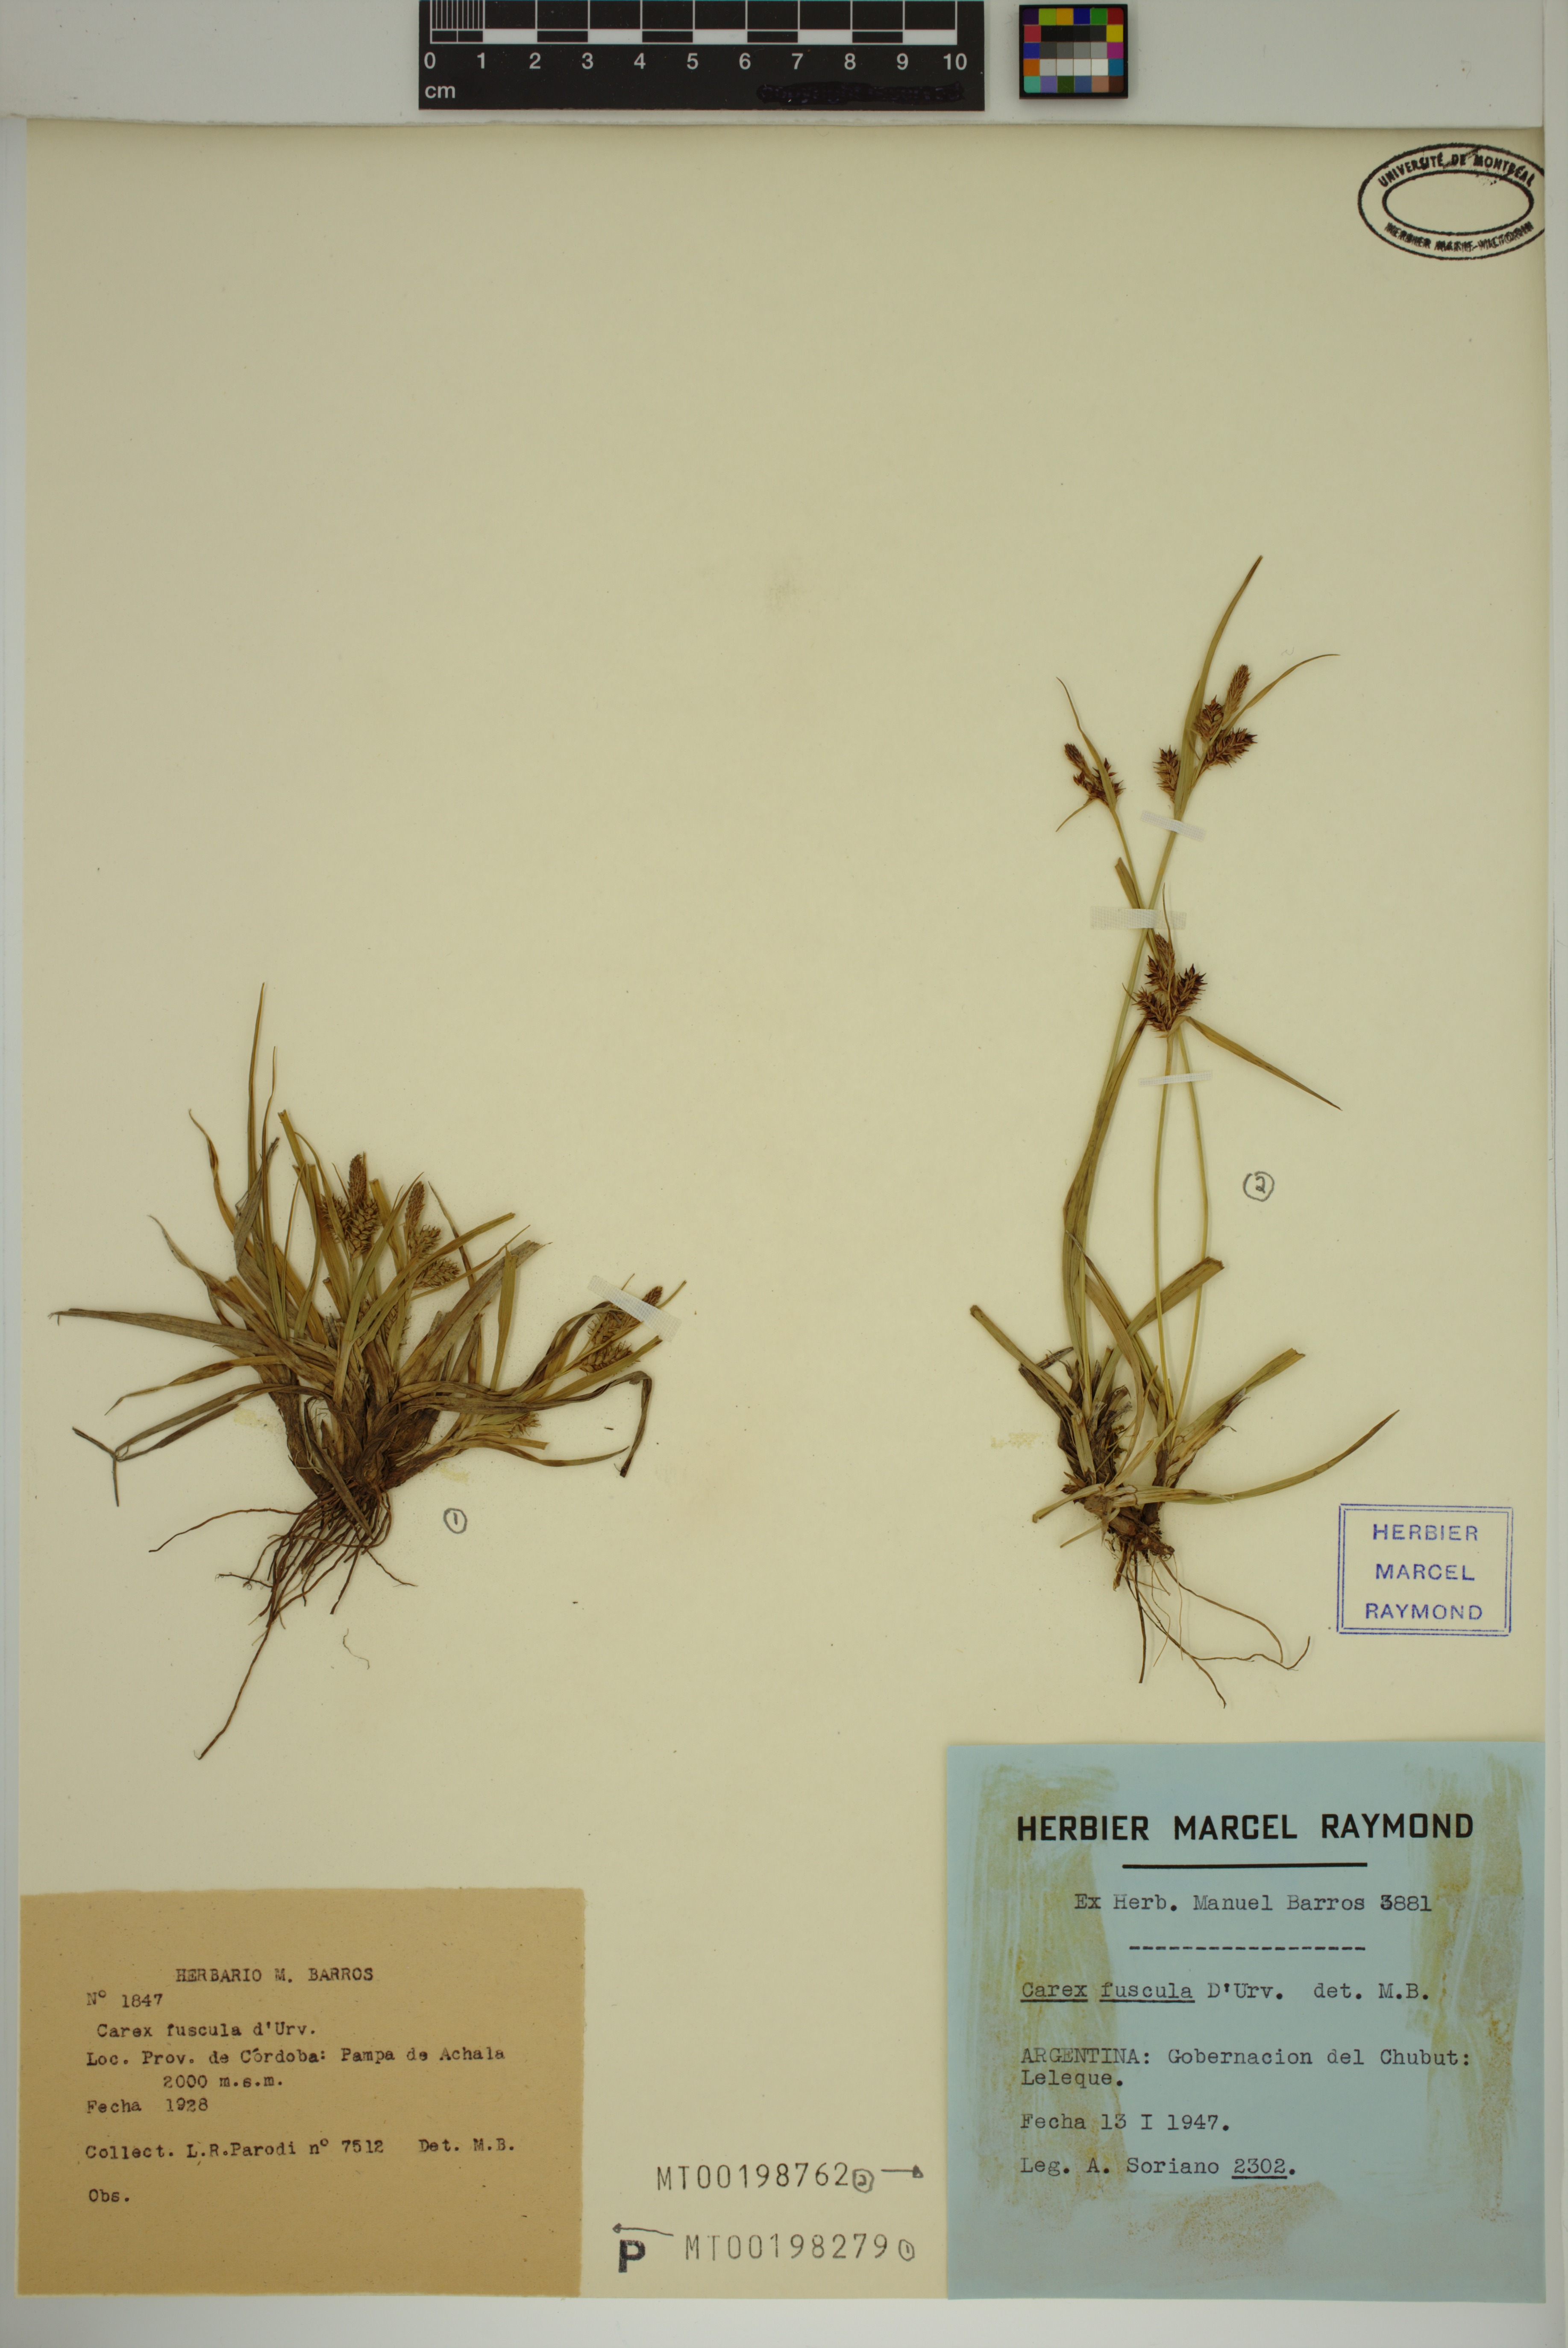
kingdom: Plantae
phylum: Tracheophyta
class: Liliopsida
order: Poales
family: Cyperaceae
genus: Carex
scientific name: Carex fuscula
